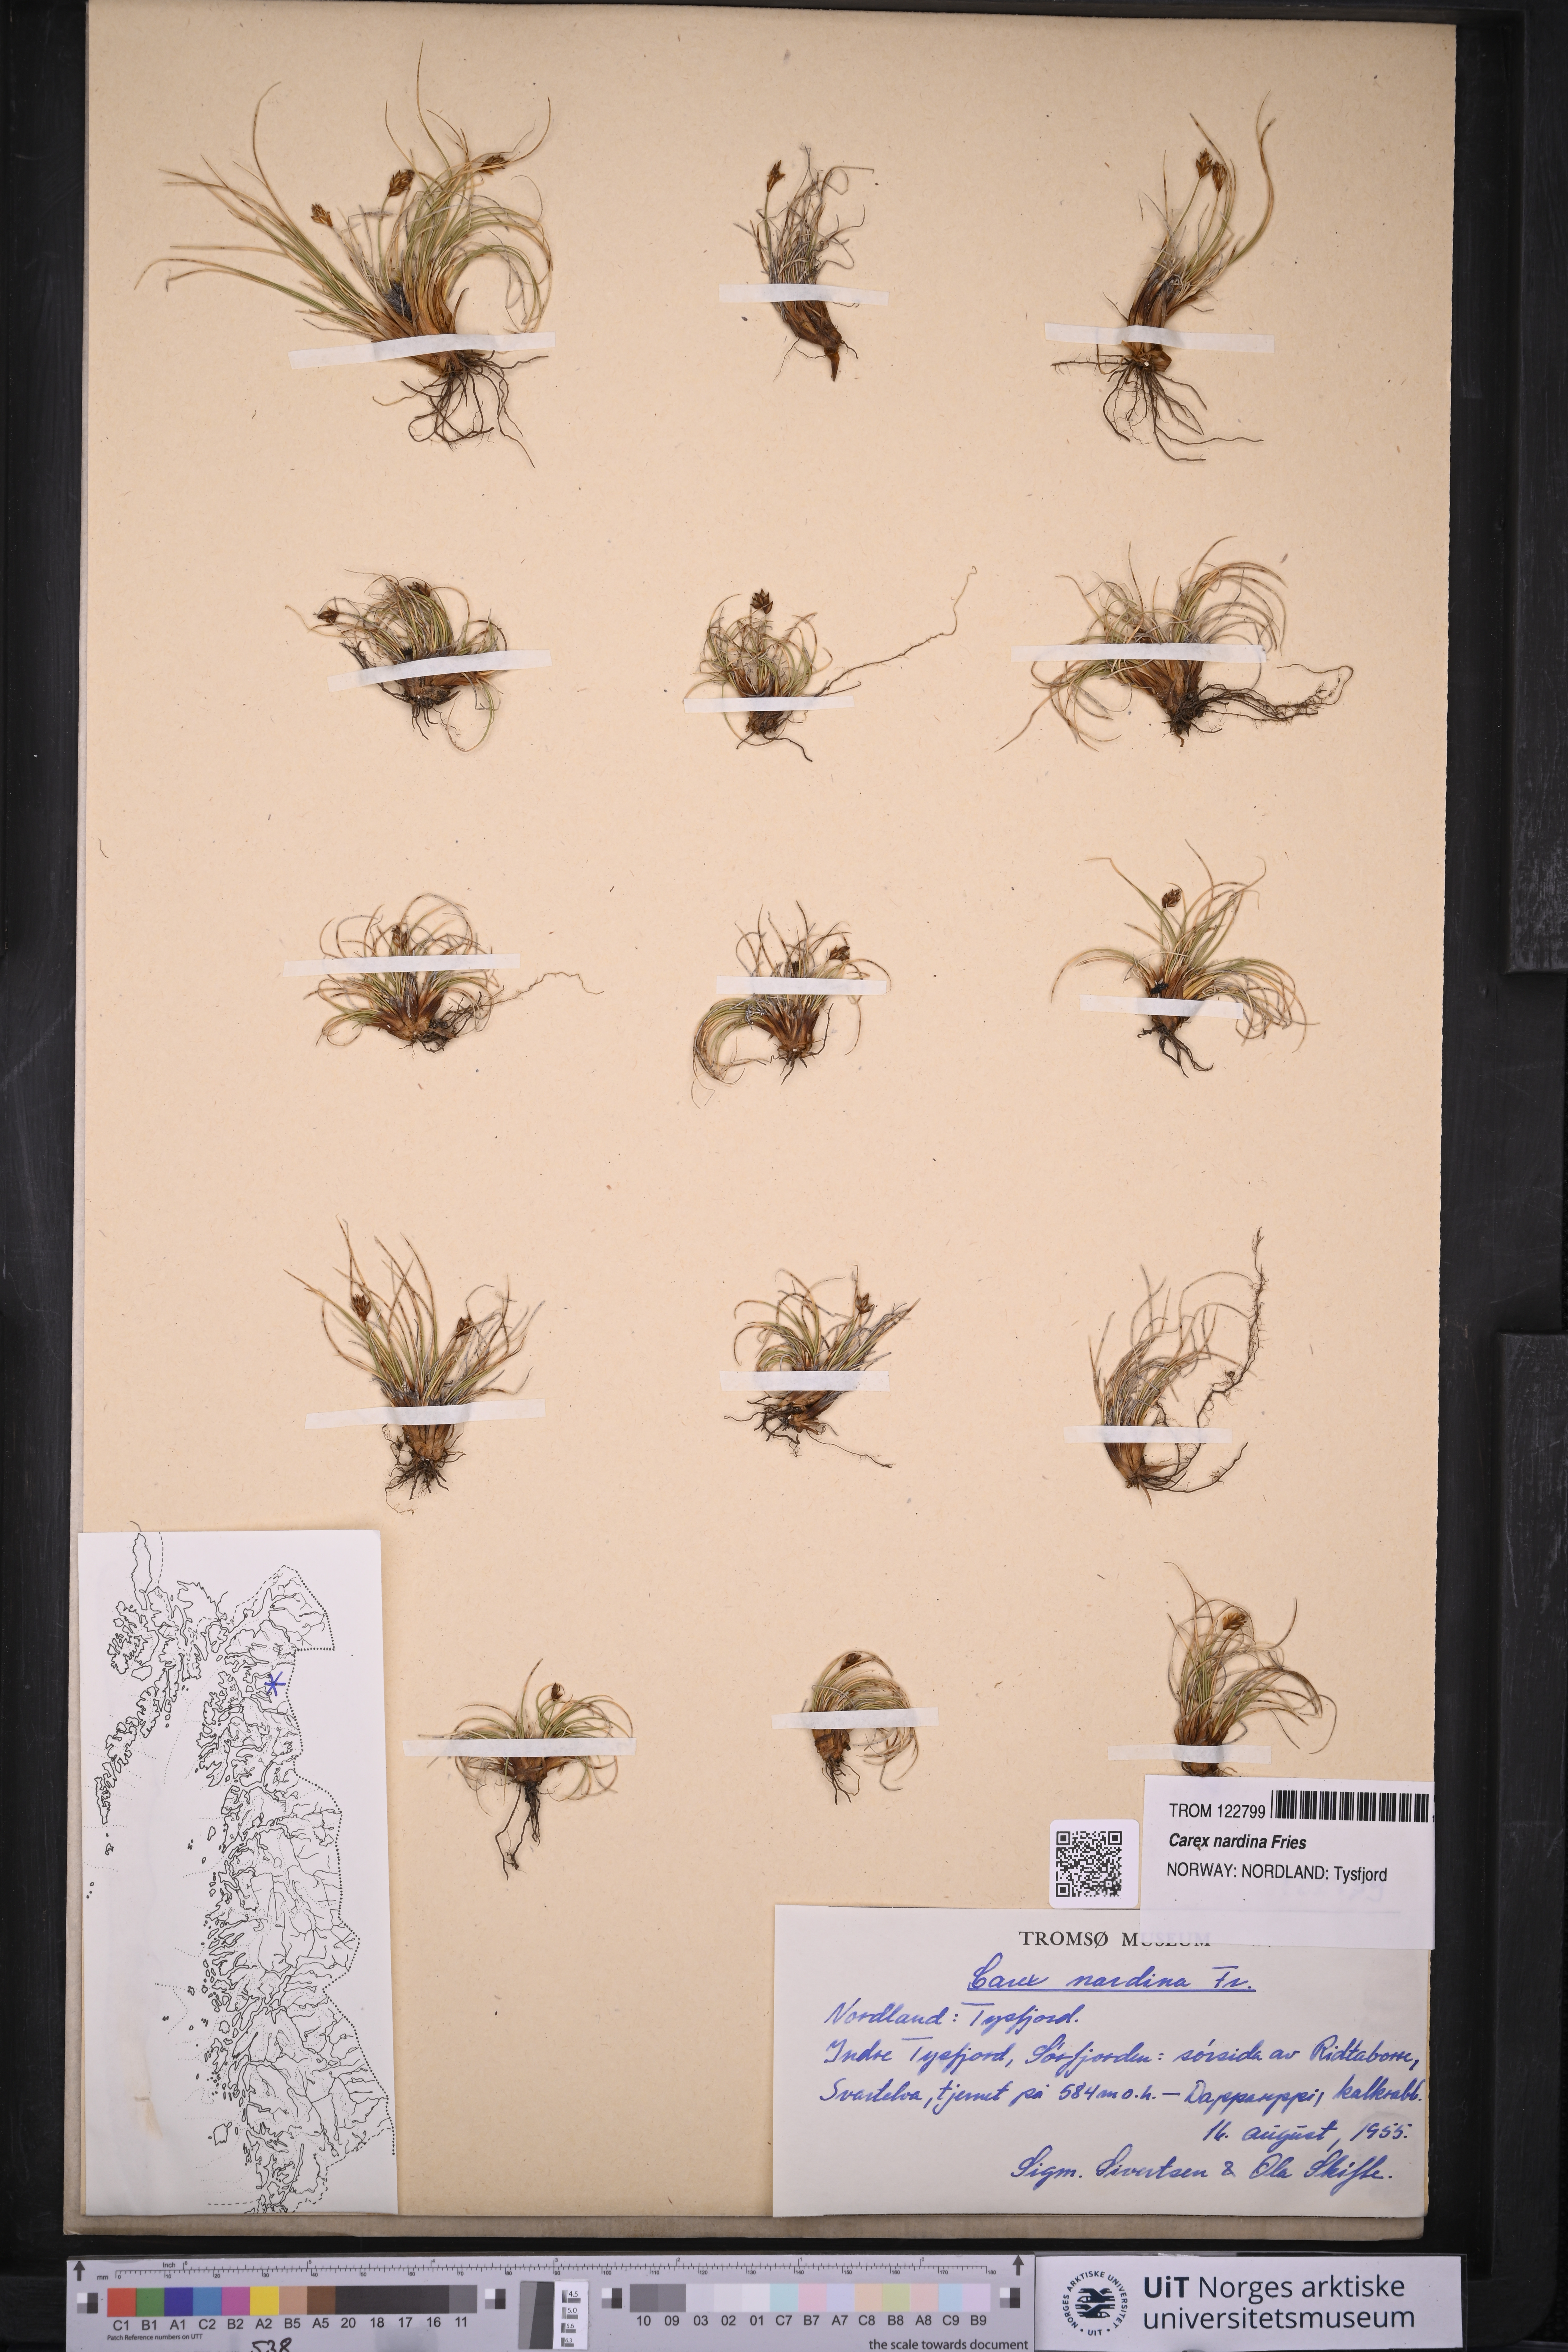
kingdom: Plantae
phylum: Tracheophyta
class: Liliopsida
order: Poales
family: Cyperaceae
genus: Carex
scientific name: Carex nardina
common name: Nard sedge
